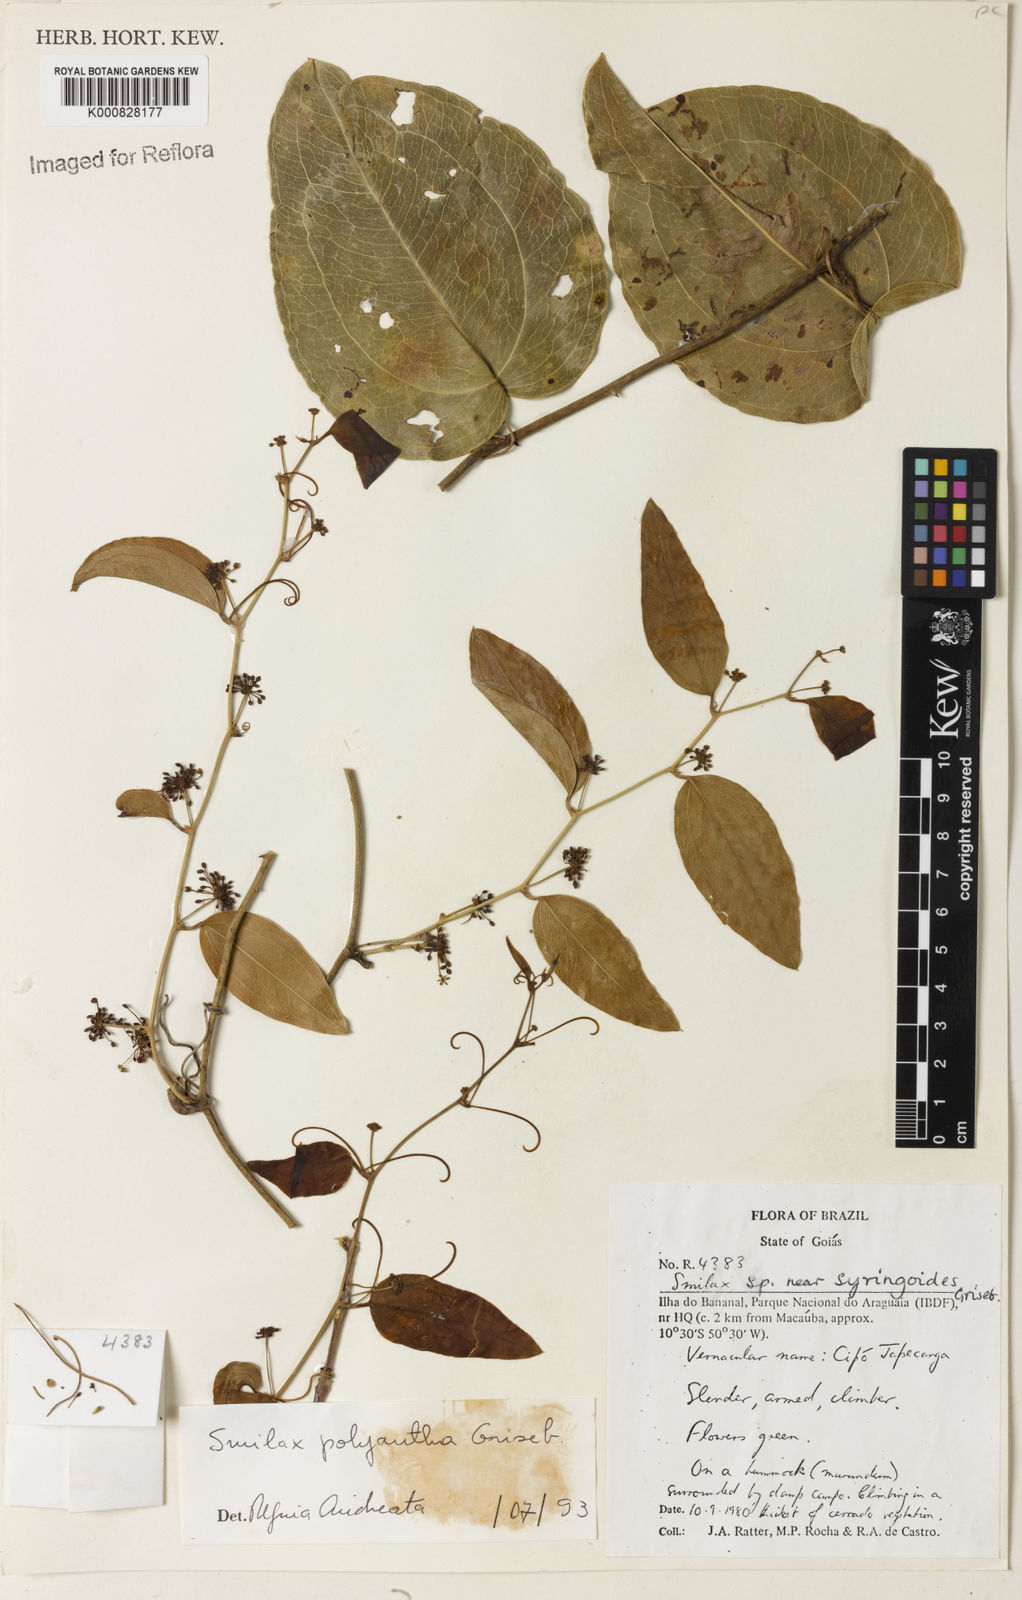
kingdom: Plantae
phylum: Tracheophyta
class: Liliopsida
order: Liliales
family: Smilacaceae
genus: Smilax
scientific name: Smilax polyantha
